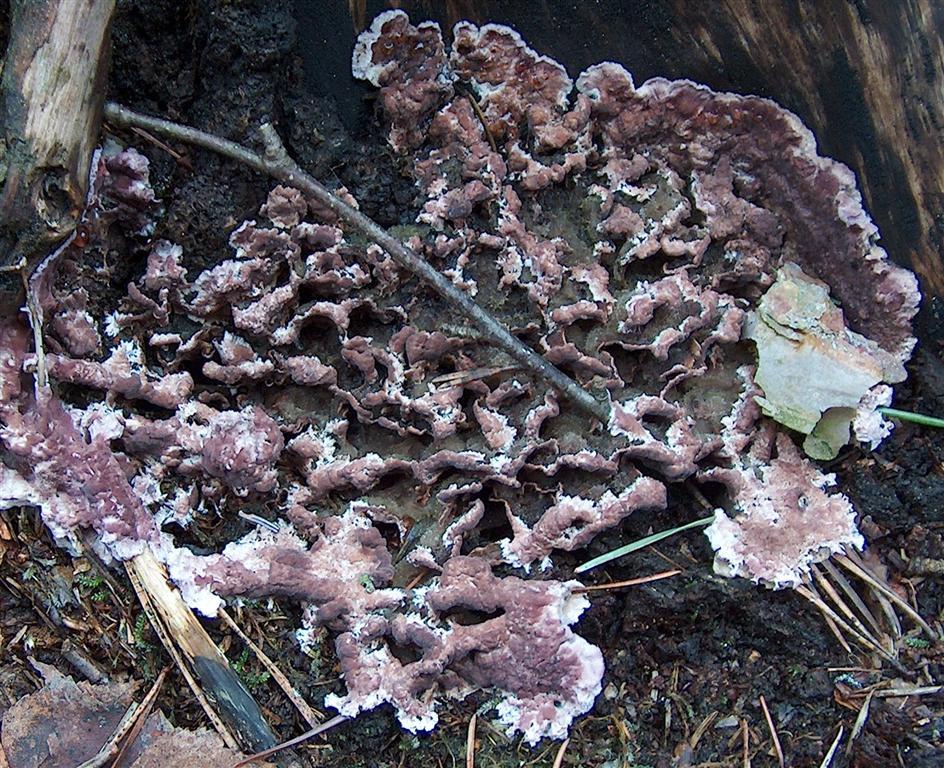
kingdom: Fungi
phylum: Basidiomycota
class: Agaricomycetes
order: Agaricales
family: Cyphellaceae
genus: Chondrostereum
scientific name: Chondrostereum purpureum
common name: purpurlædersvamp
